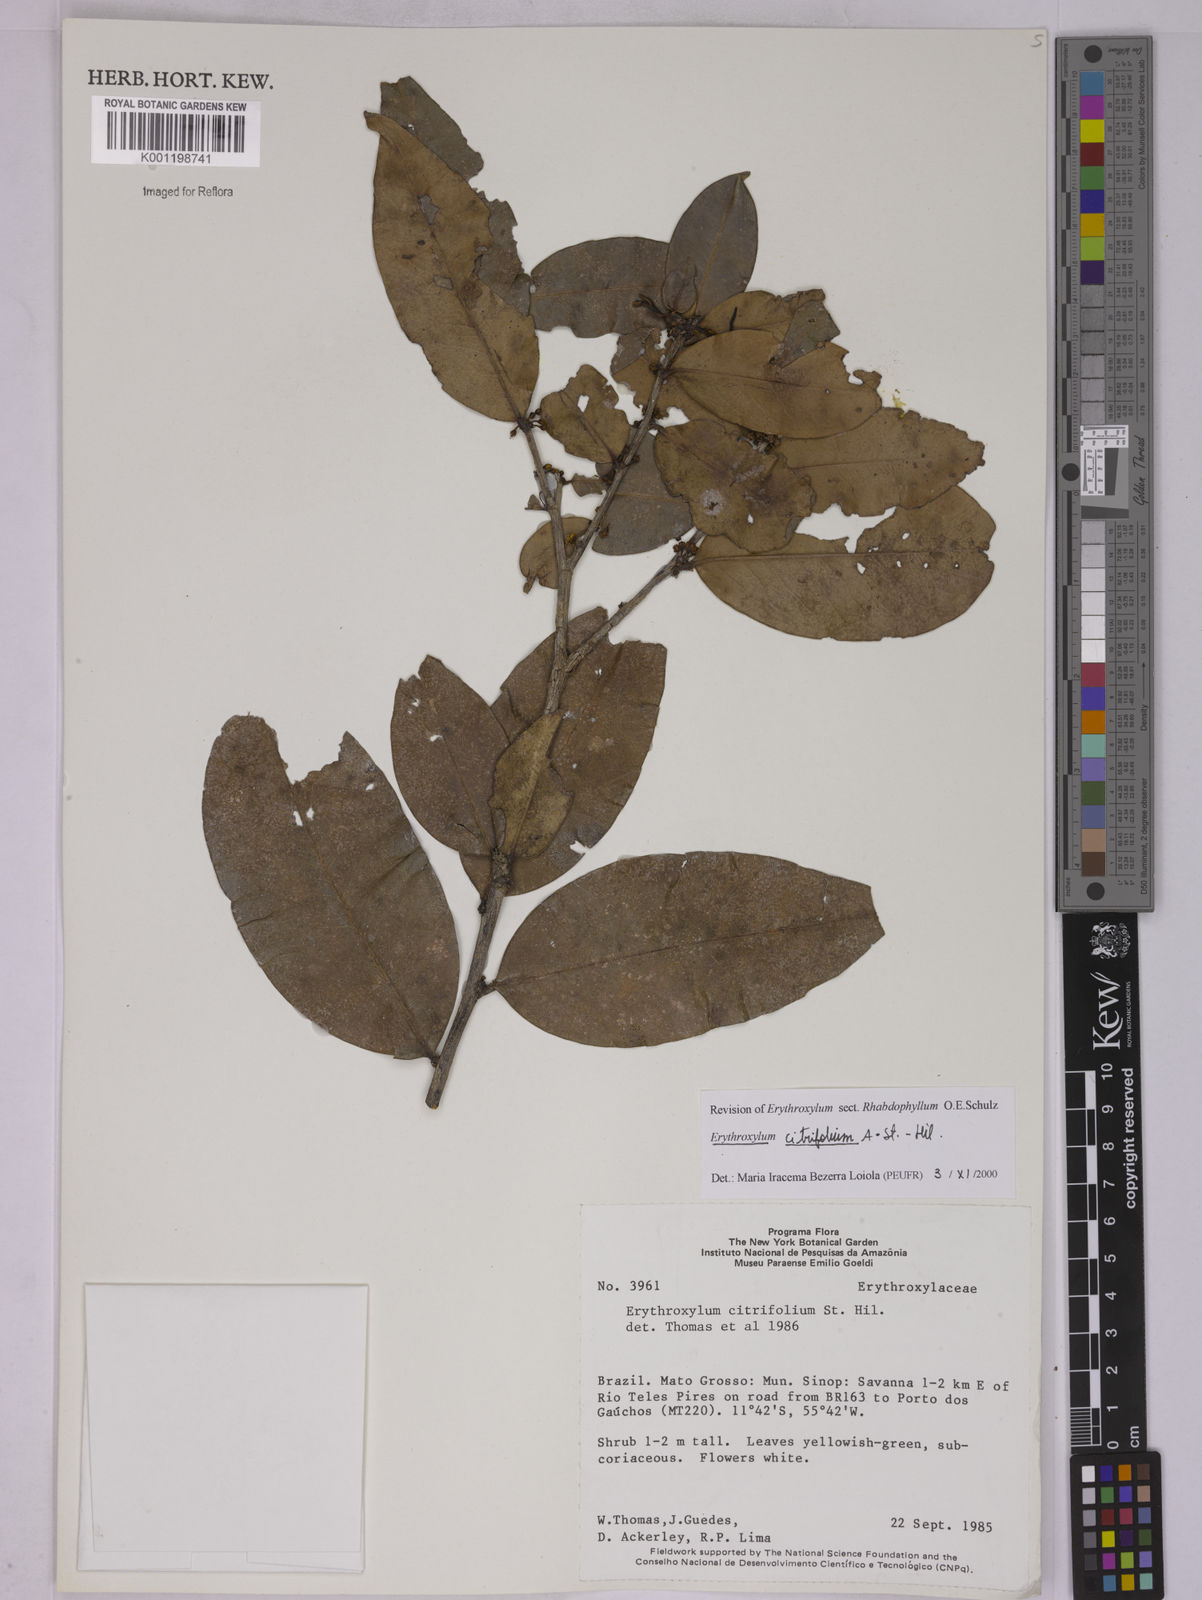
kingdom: Plantae
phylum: Tracheophyta
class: Magnoliopsida
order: Malpighiales
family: Erythroxylaceae
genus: Erythroxylum
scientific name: Erythroxylum citrifolium
